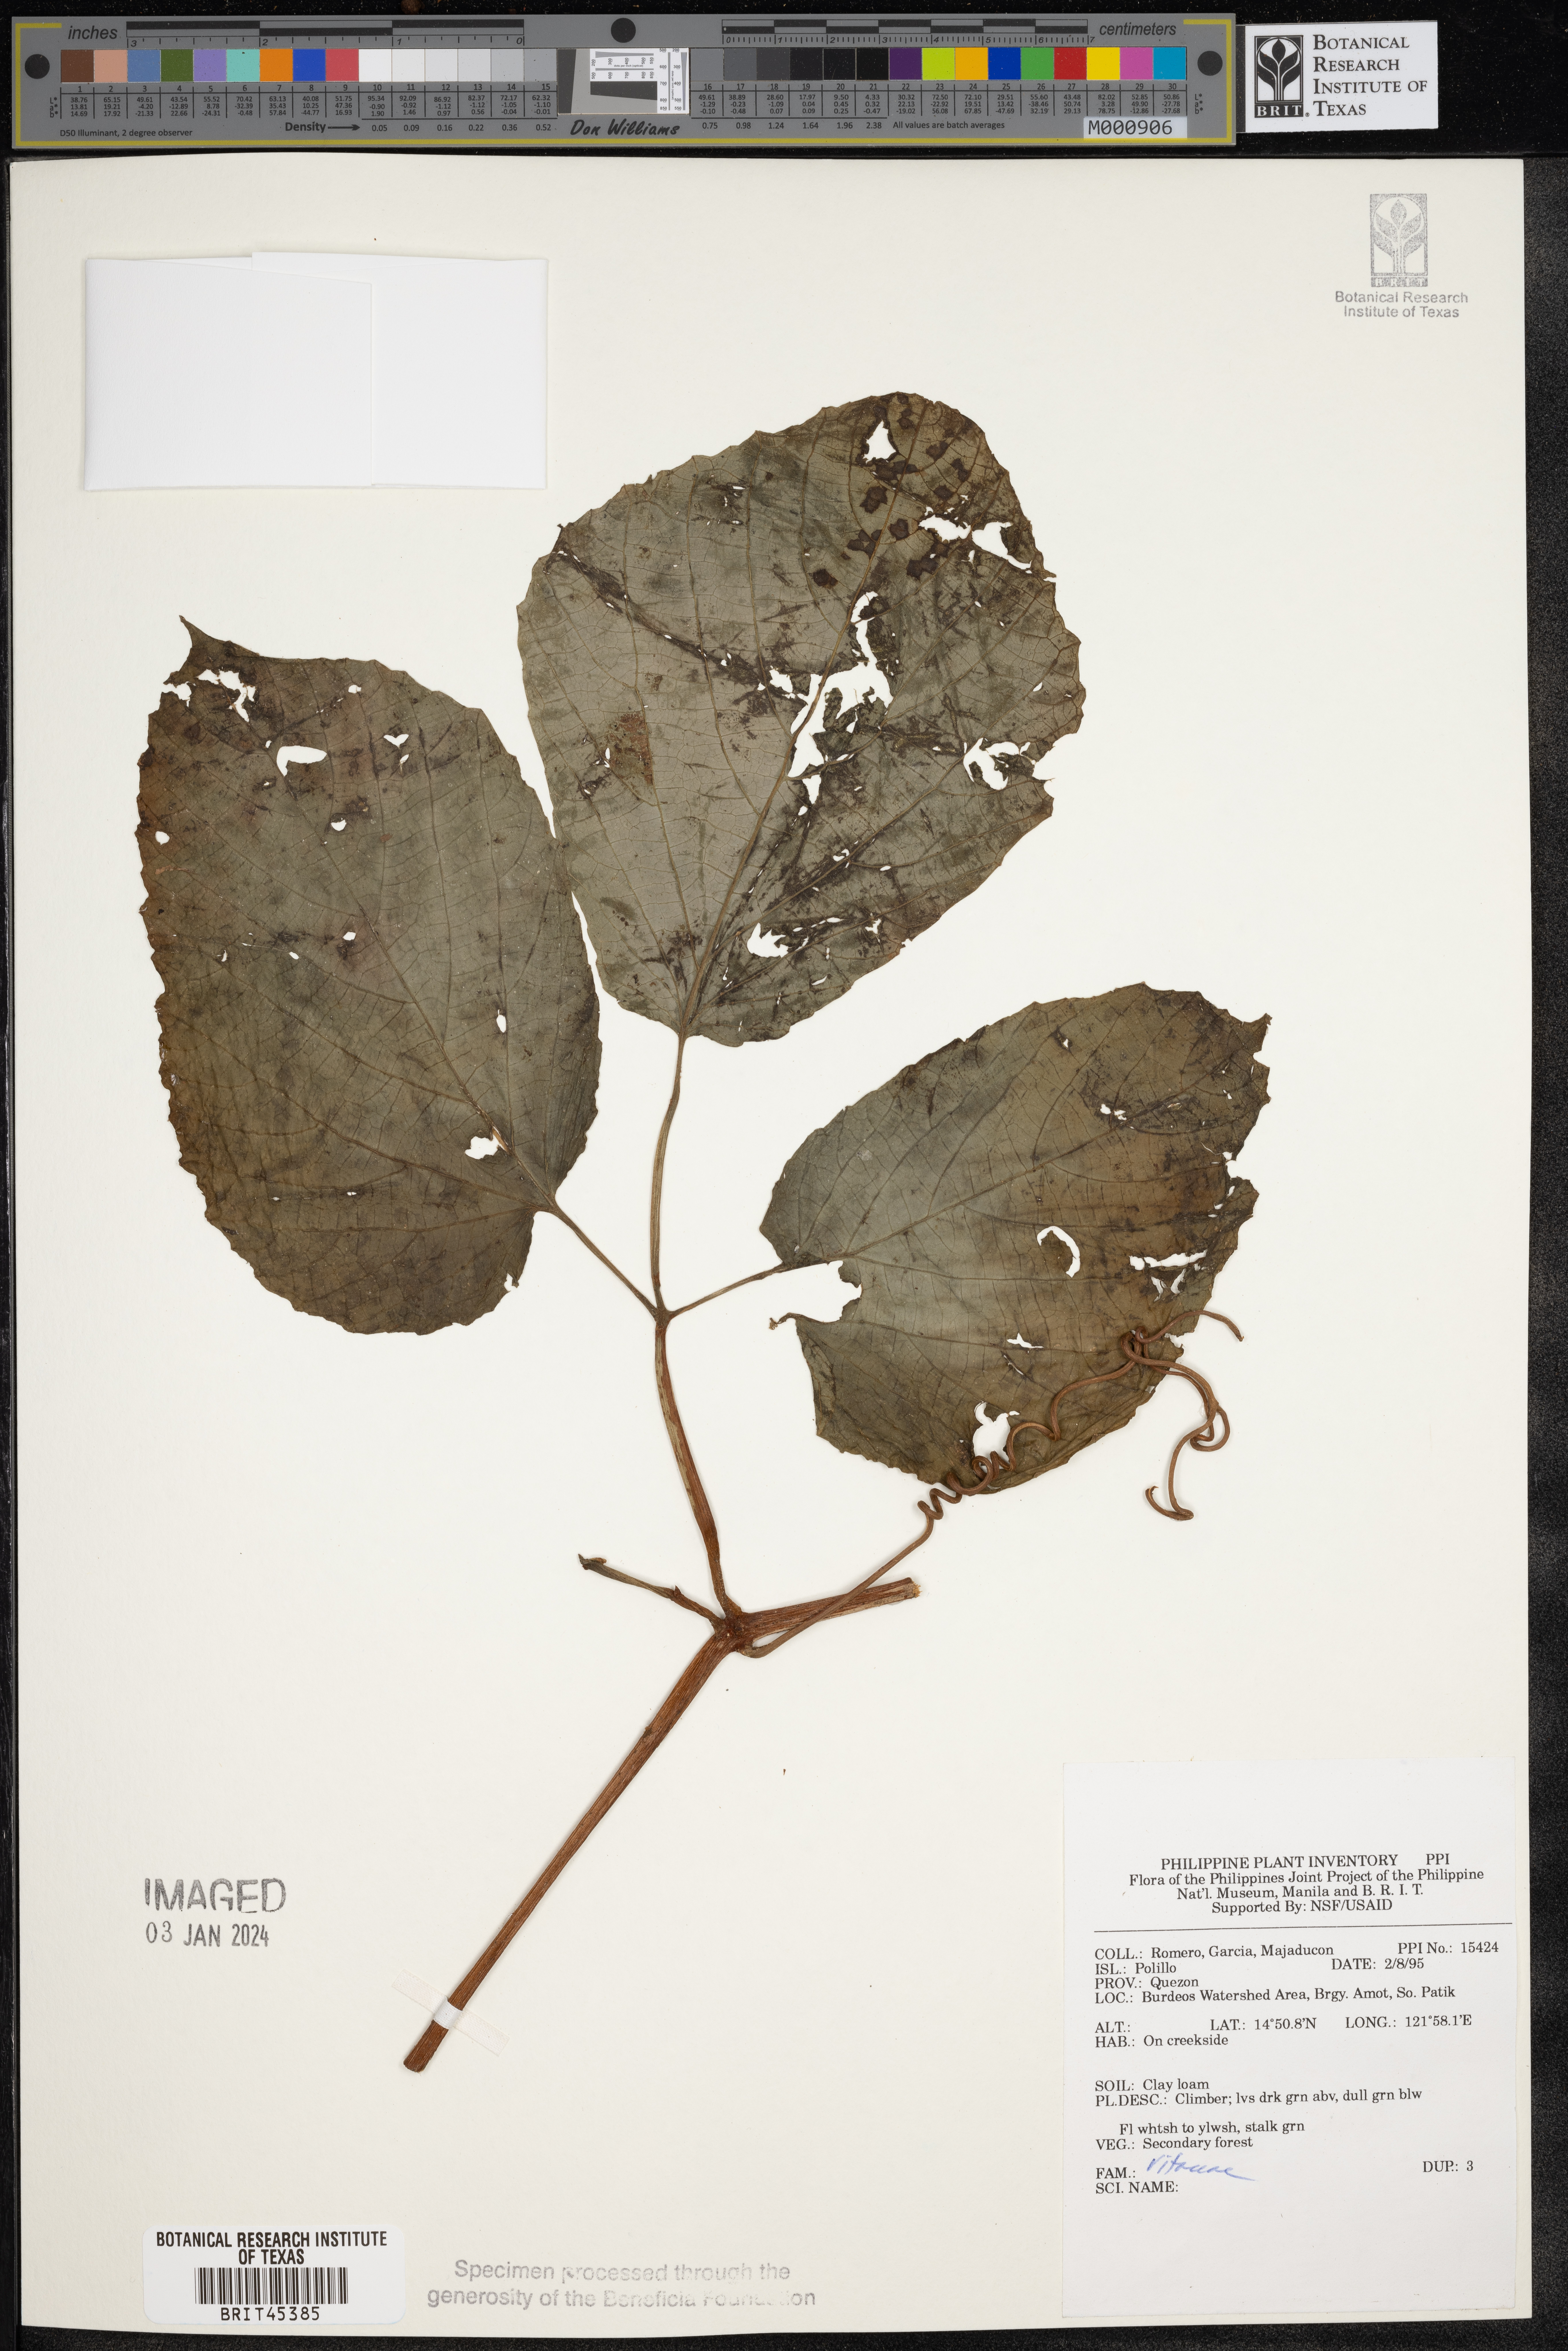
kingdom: Plantae
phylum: Tracheophyta
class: Magnoliopsida
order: Vitales
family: Vitaceae
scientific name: Vitaceae
